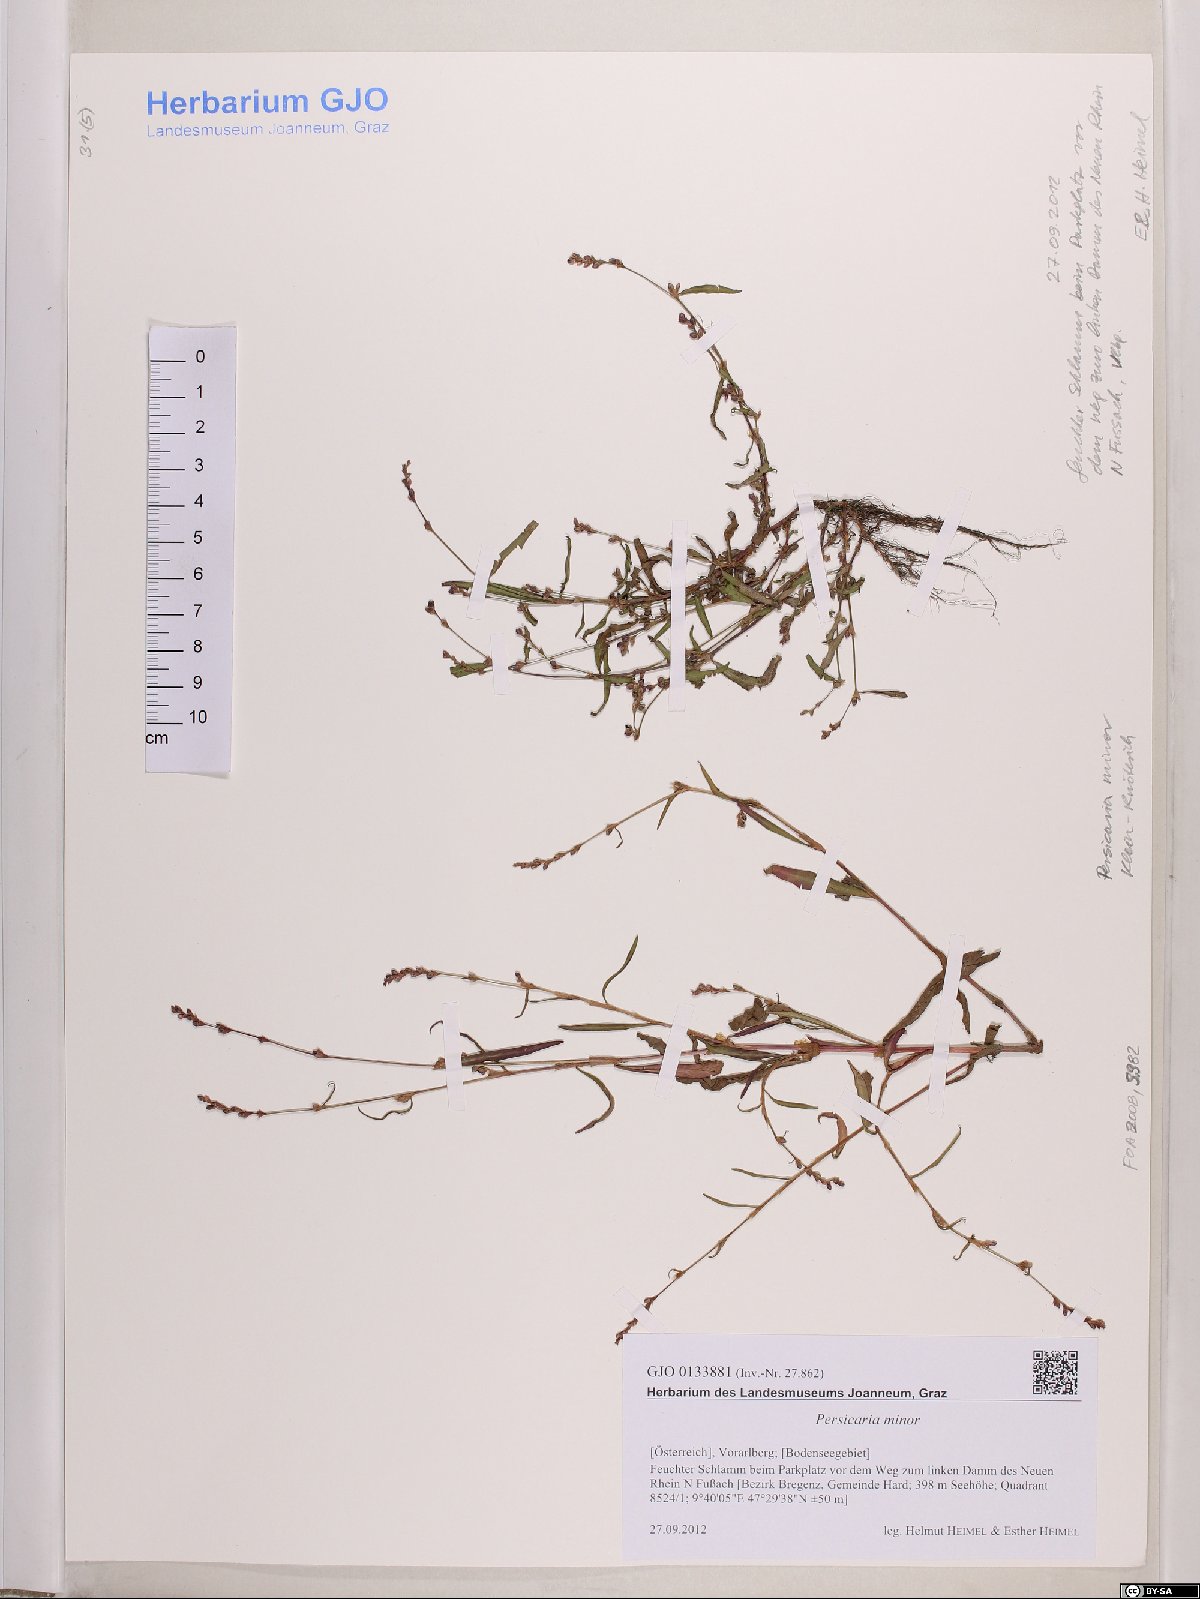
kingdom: Plantae
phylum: Tracheophyta
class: Magnoliopsida
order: Caryophyllales
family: Polygonaceae
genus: Persicaria
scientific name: Persicaria minor
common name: Small water-pepper
